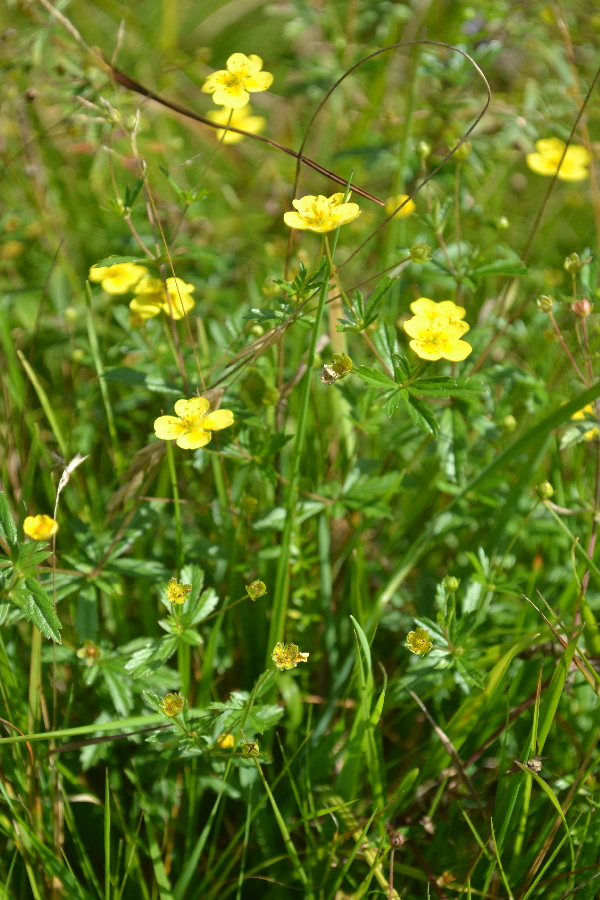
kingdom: Plantae
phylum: Tracheophyta
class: Magnoliopsida
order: Rosales
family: Rosaceae
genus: Potentilla
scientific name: Potentilla erecta
